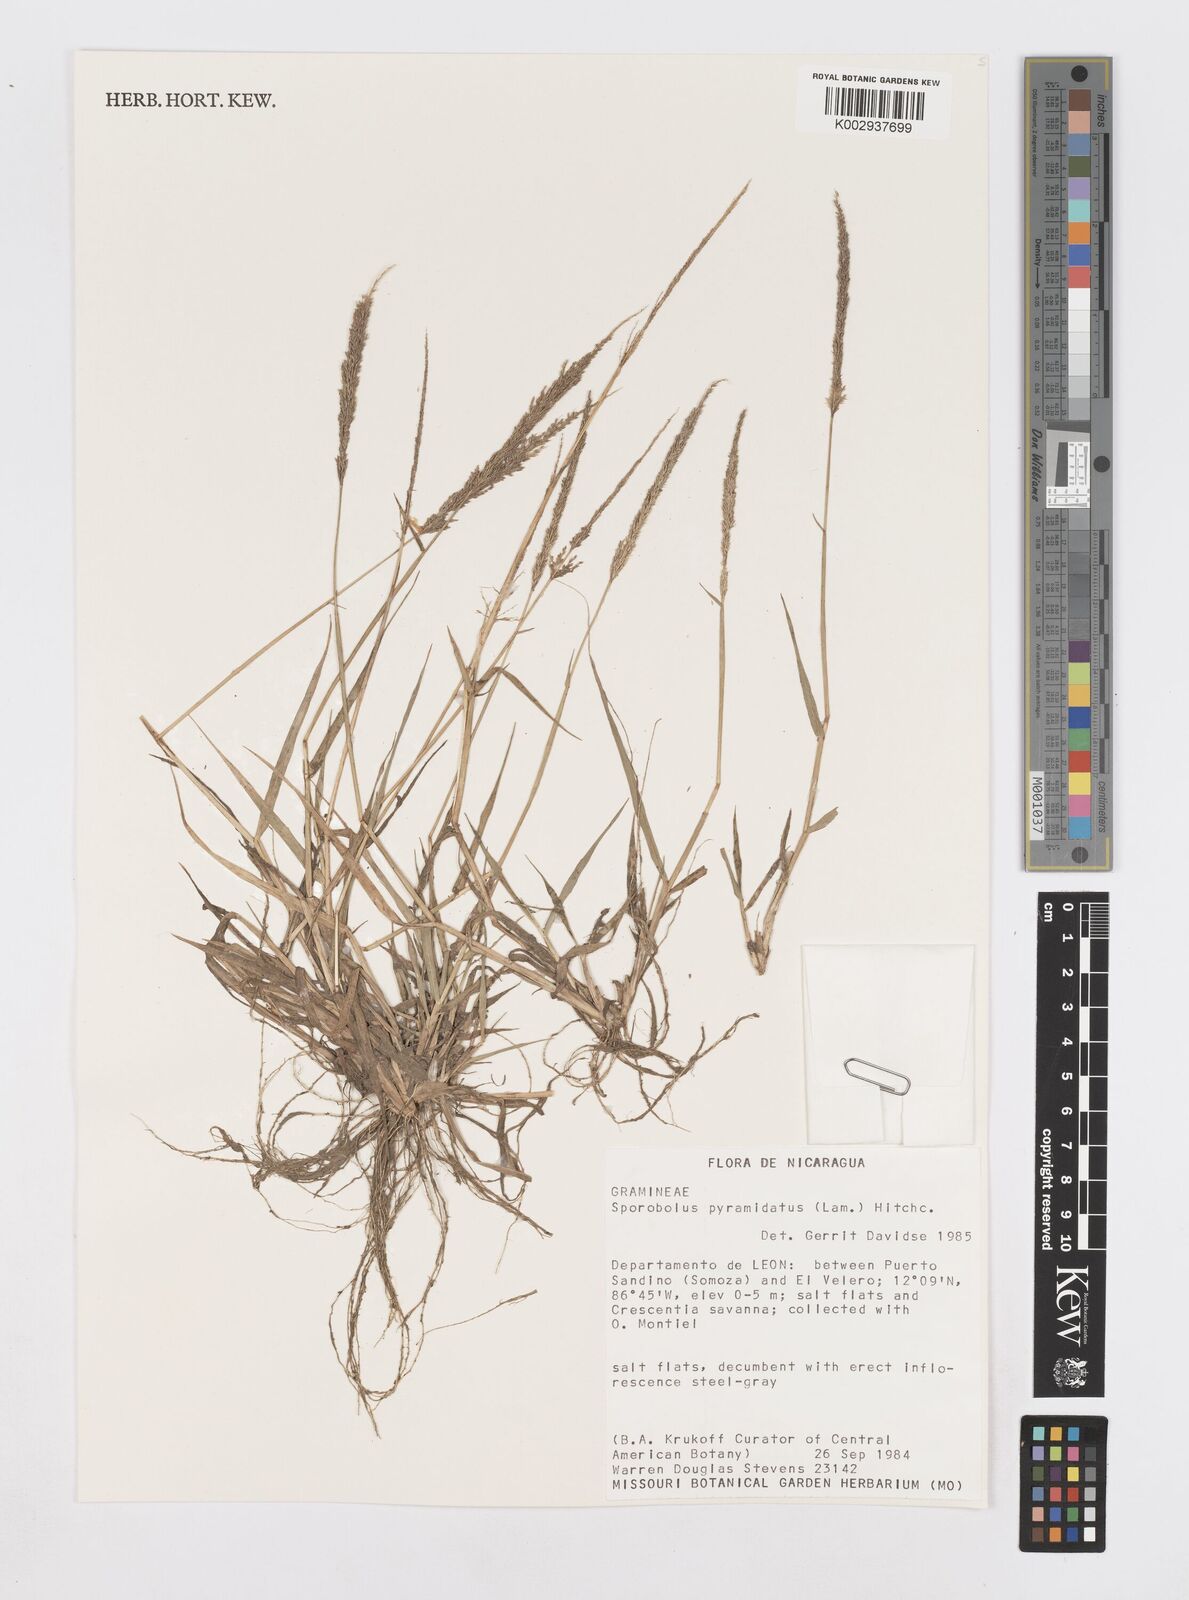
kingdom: Plantae
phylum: Tracheophyta
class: Liliopsida
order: Poales
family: Poaceae
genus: Sporobolus
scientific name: Sporobolus pyramidatus
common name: Whorled dropseed
